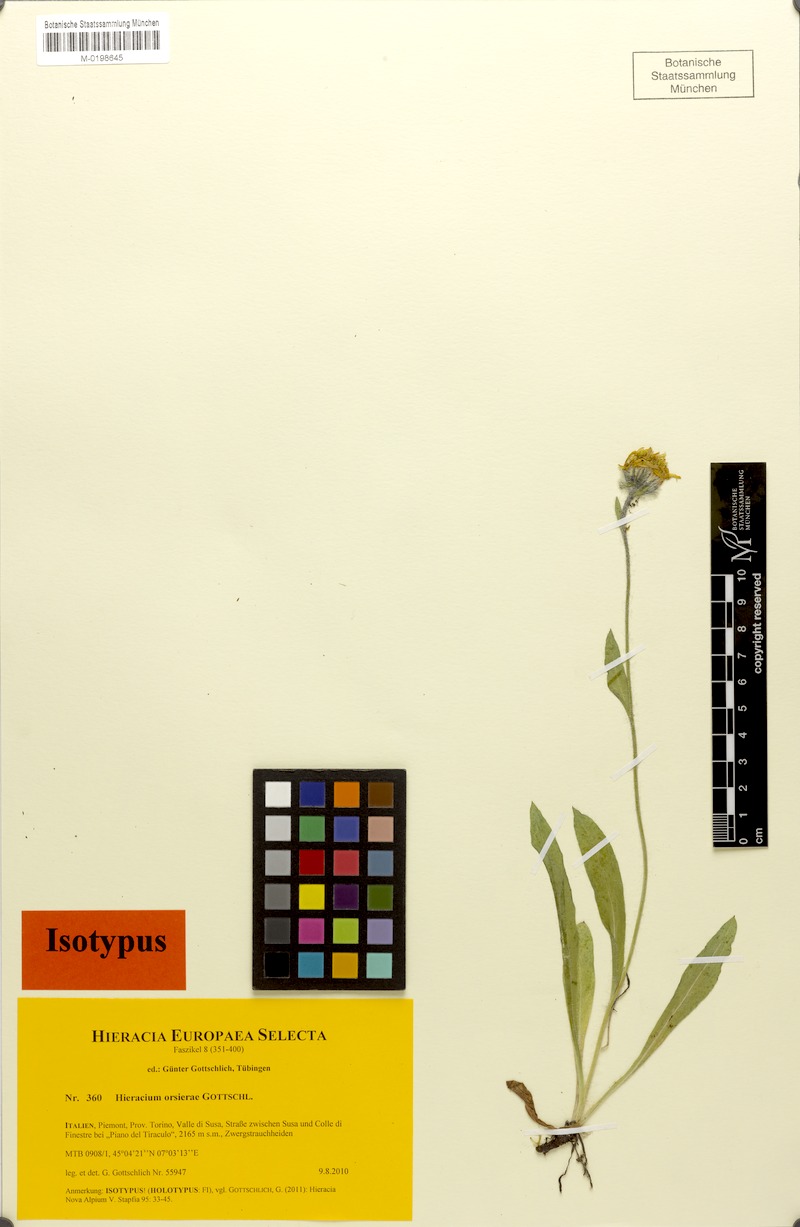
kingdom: Plantae
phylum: Tracheophyta
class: Magnoliopsida
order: Asterales
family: Asteraceae
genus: Hieracium
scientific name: Hieracium orsierae
